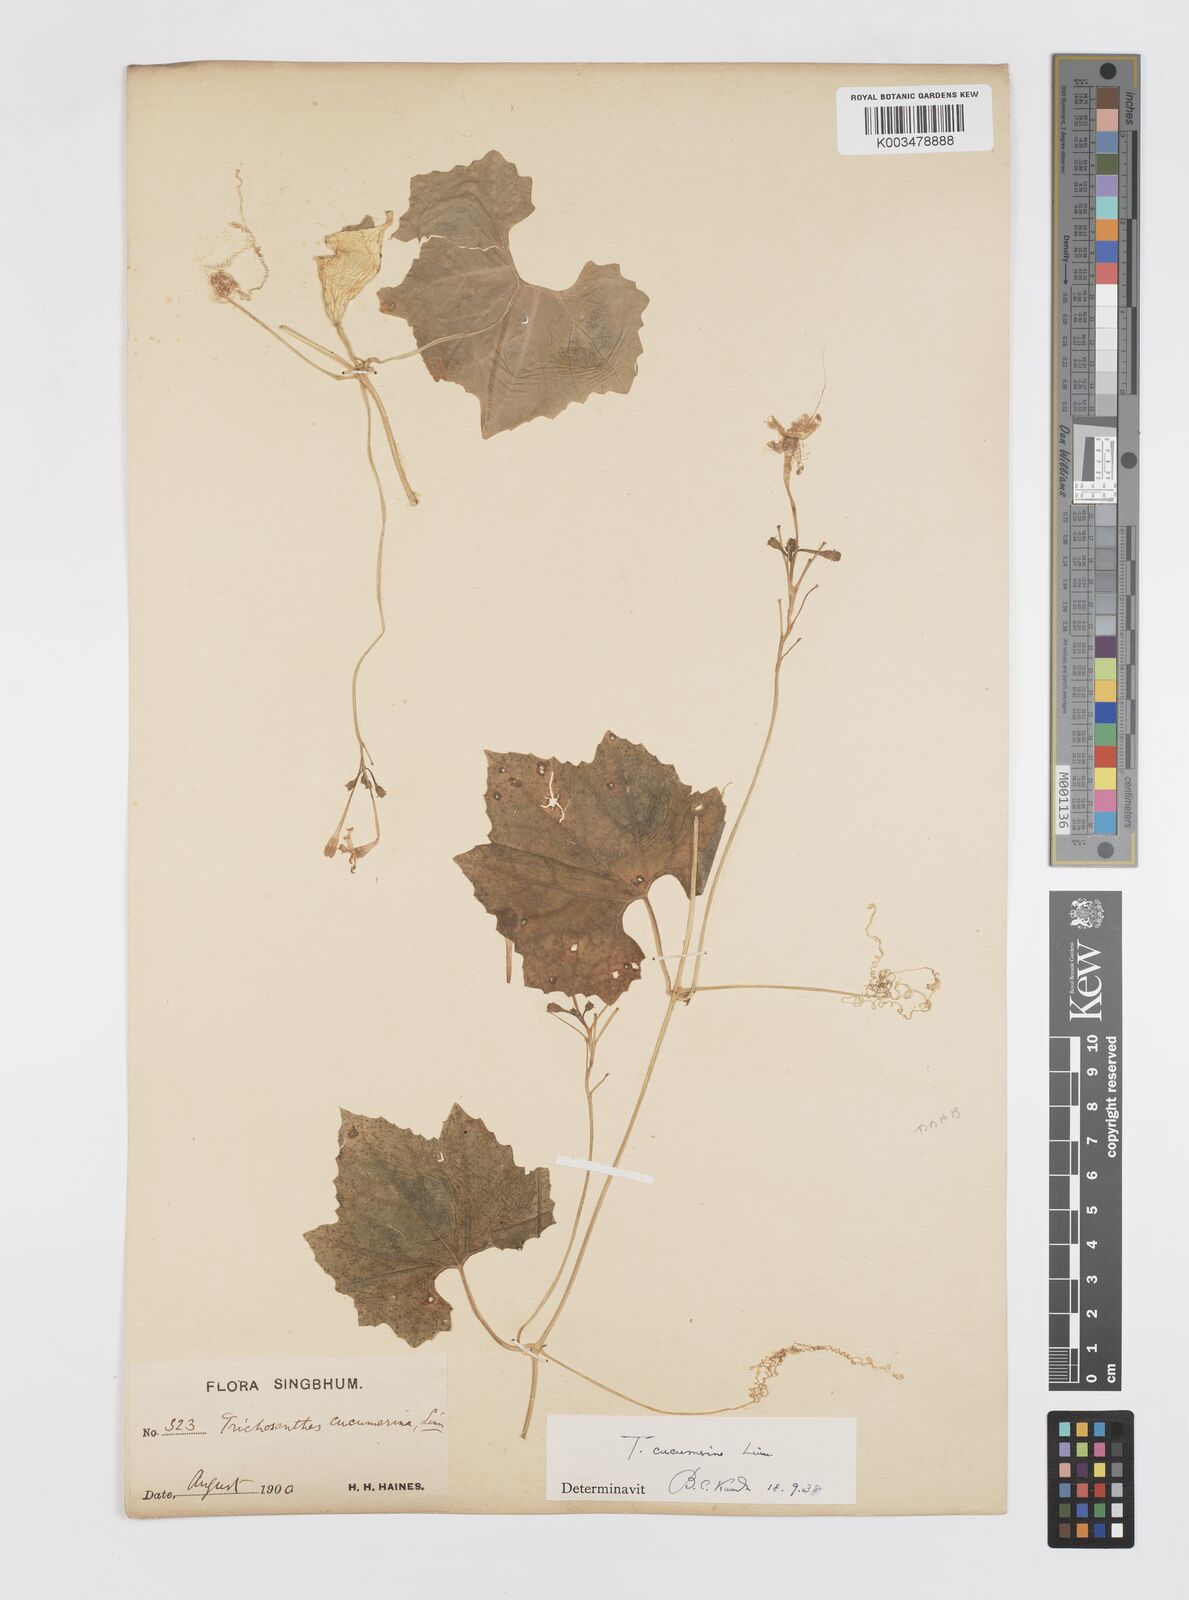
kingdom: Plantae
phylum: Tracheophyta
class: Magnoliopsida
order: Cucurbitales
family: Cucurbitaceae
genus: Trichosanthes
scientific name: Trichosanthes cucumerina
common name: Snakegourd
